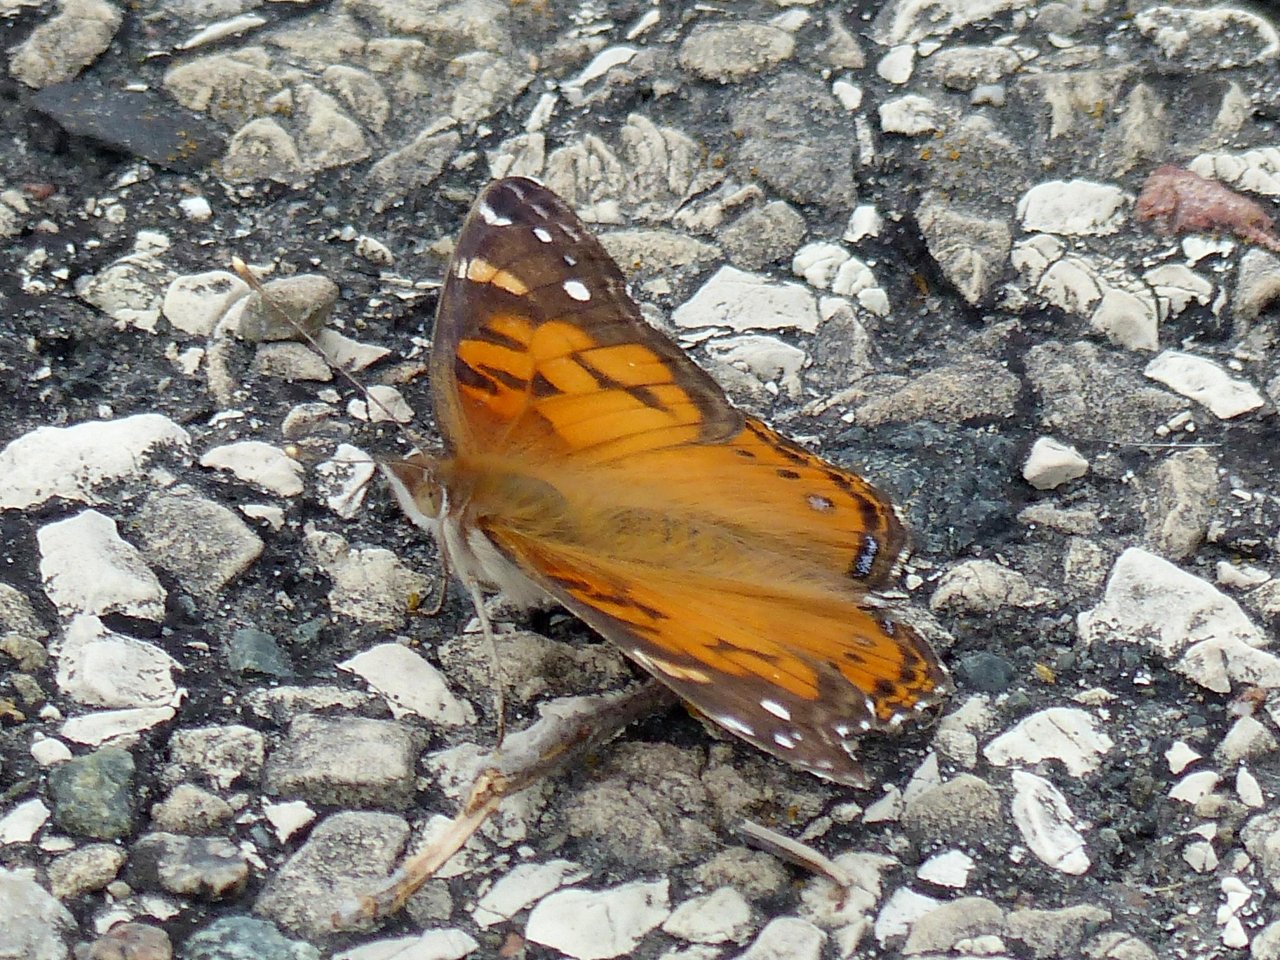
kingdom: Animalia
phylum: Arthropoda
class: Insecta
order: Lepidoptera
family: Nymphalidae
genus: Vanessa
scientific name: Vanessa virginiensis
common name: American Lady
